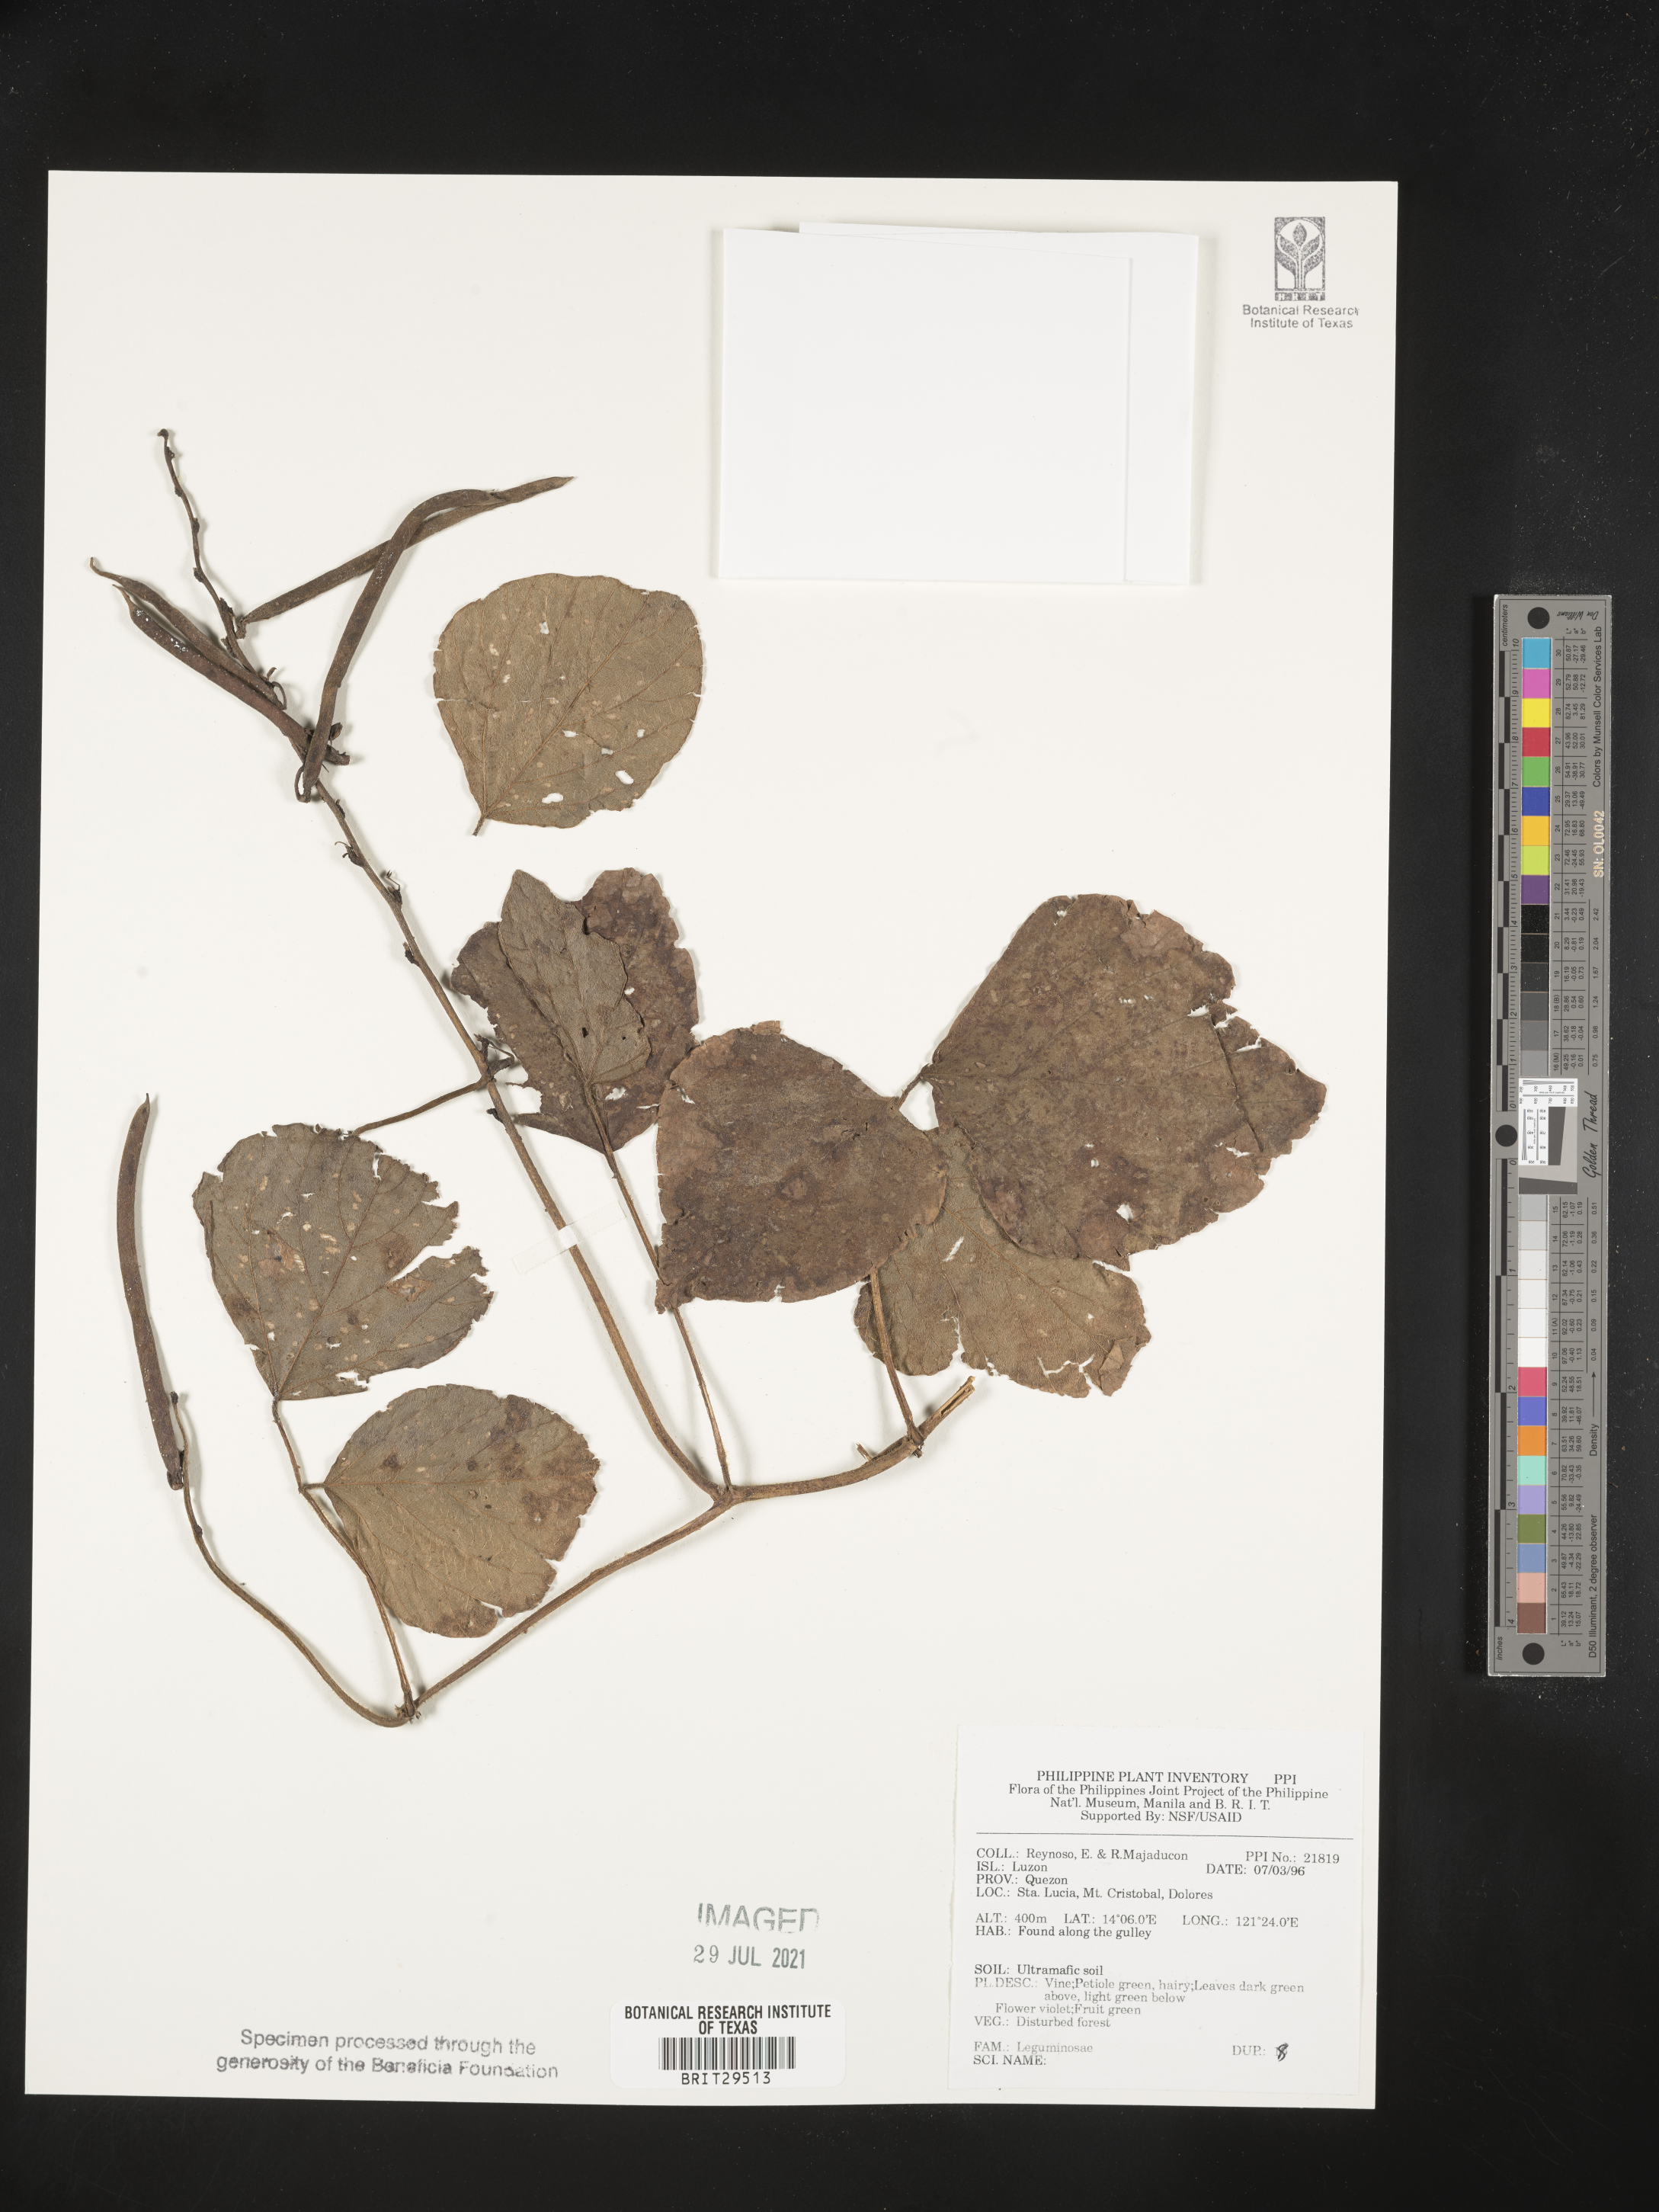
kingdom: Plantae
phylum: Tracheophyta
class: Magnoliopsida
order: Fabales
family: Fabaceae
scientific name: Fabaceae
